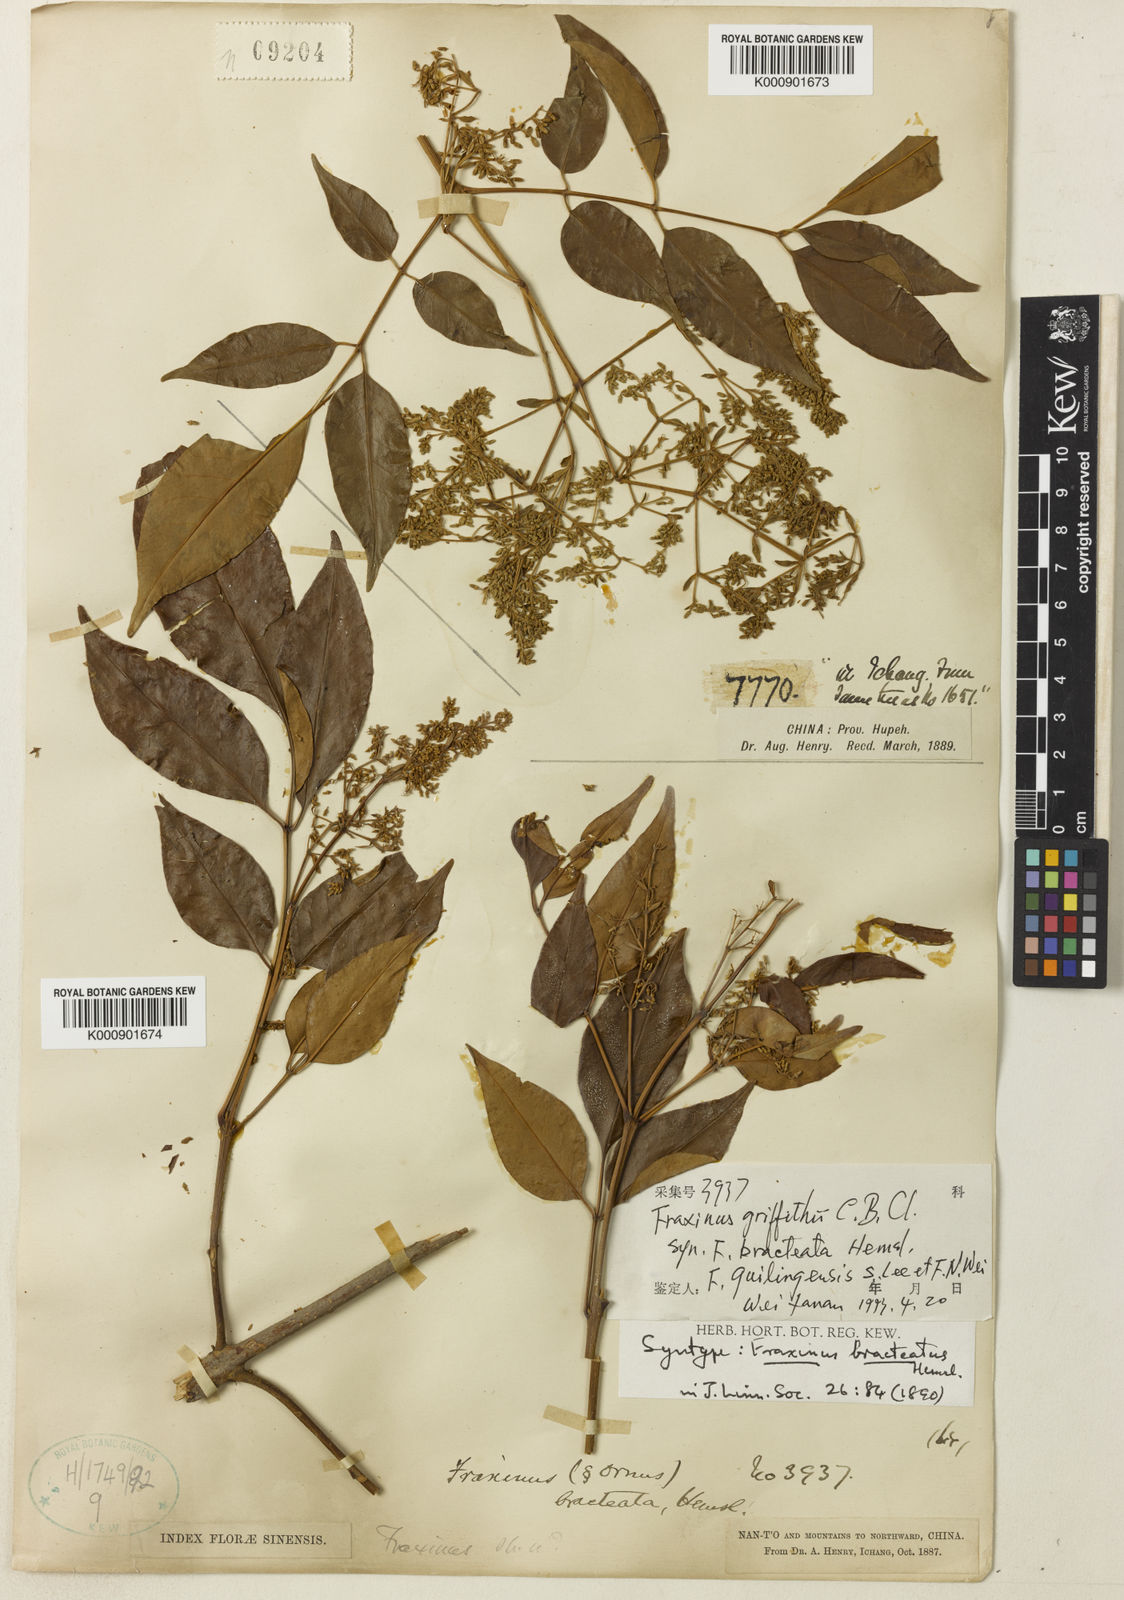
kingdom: Plantae
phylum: Tracheophyta
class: Magnoliopsida
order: Lamiales
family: Oleaceae
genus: Fraxinus
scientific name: Fraxinus griffithii
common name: Himalayan ash
